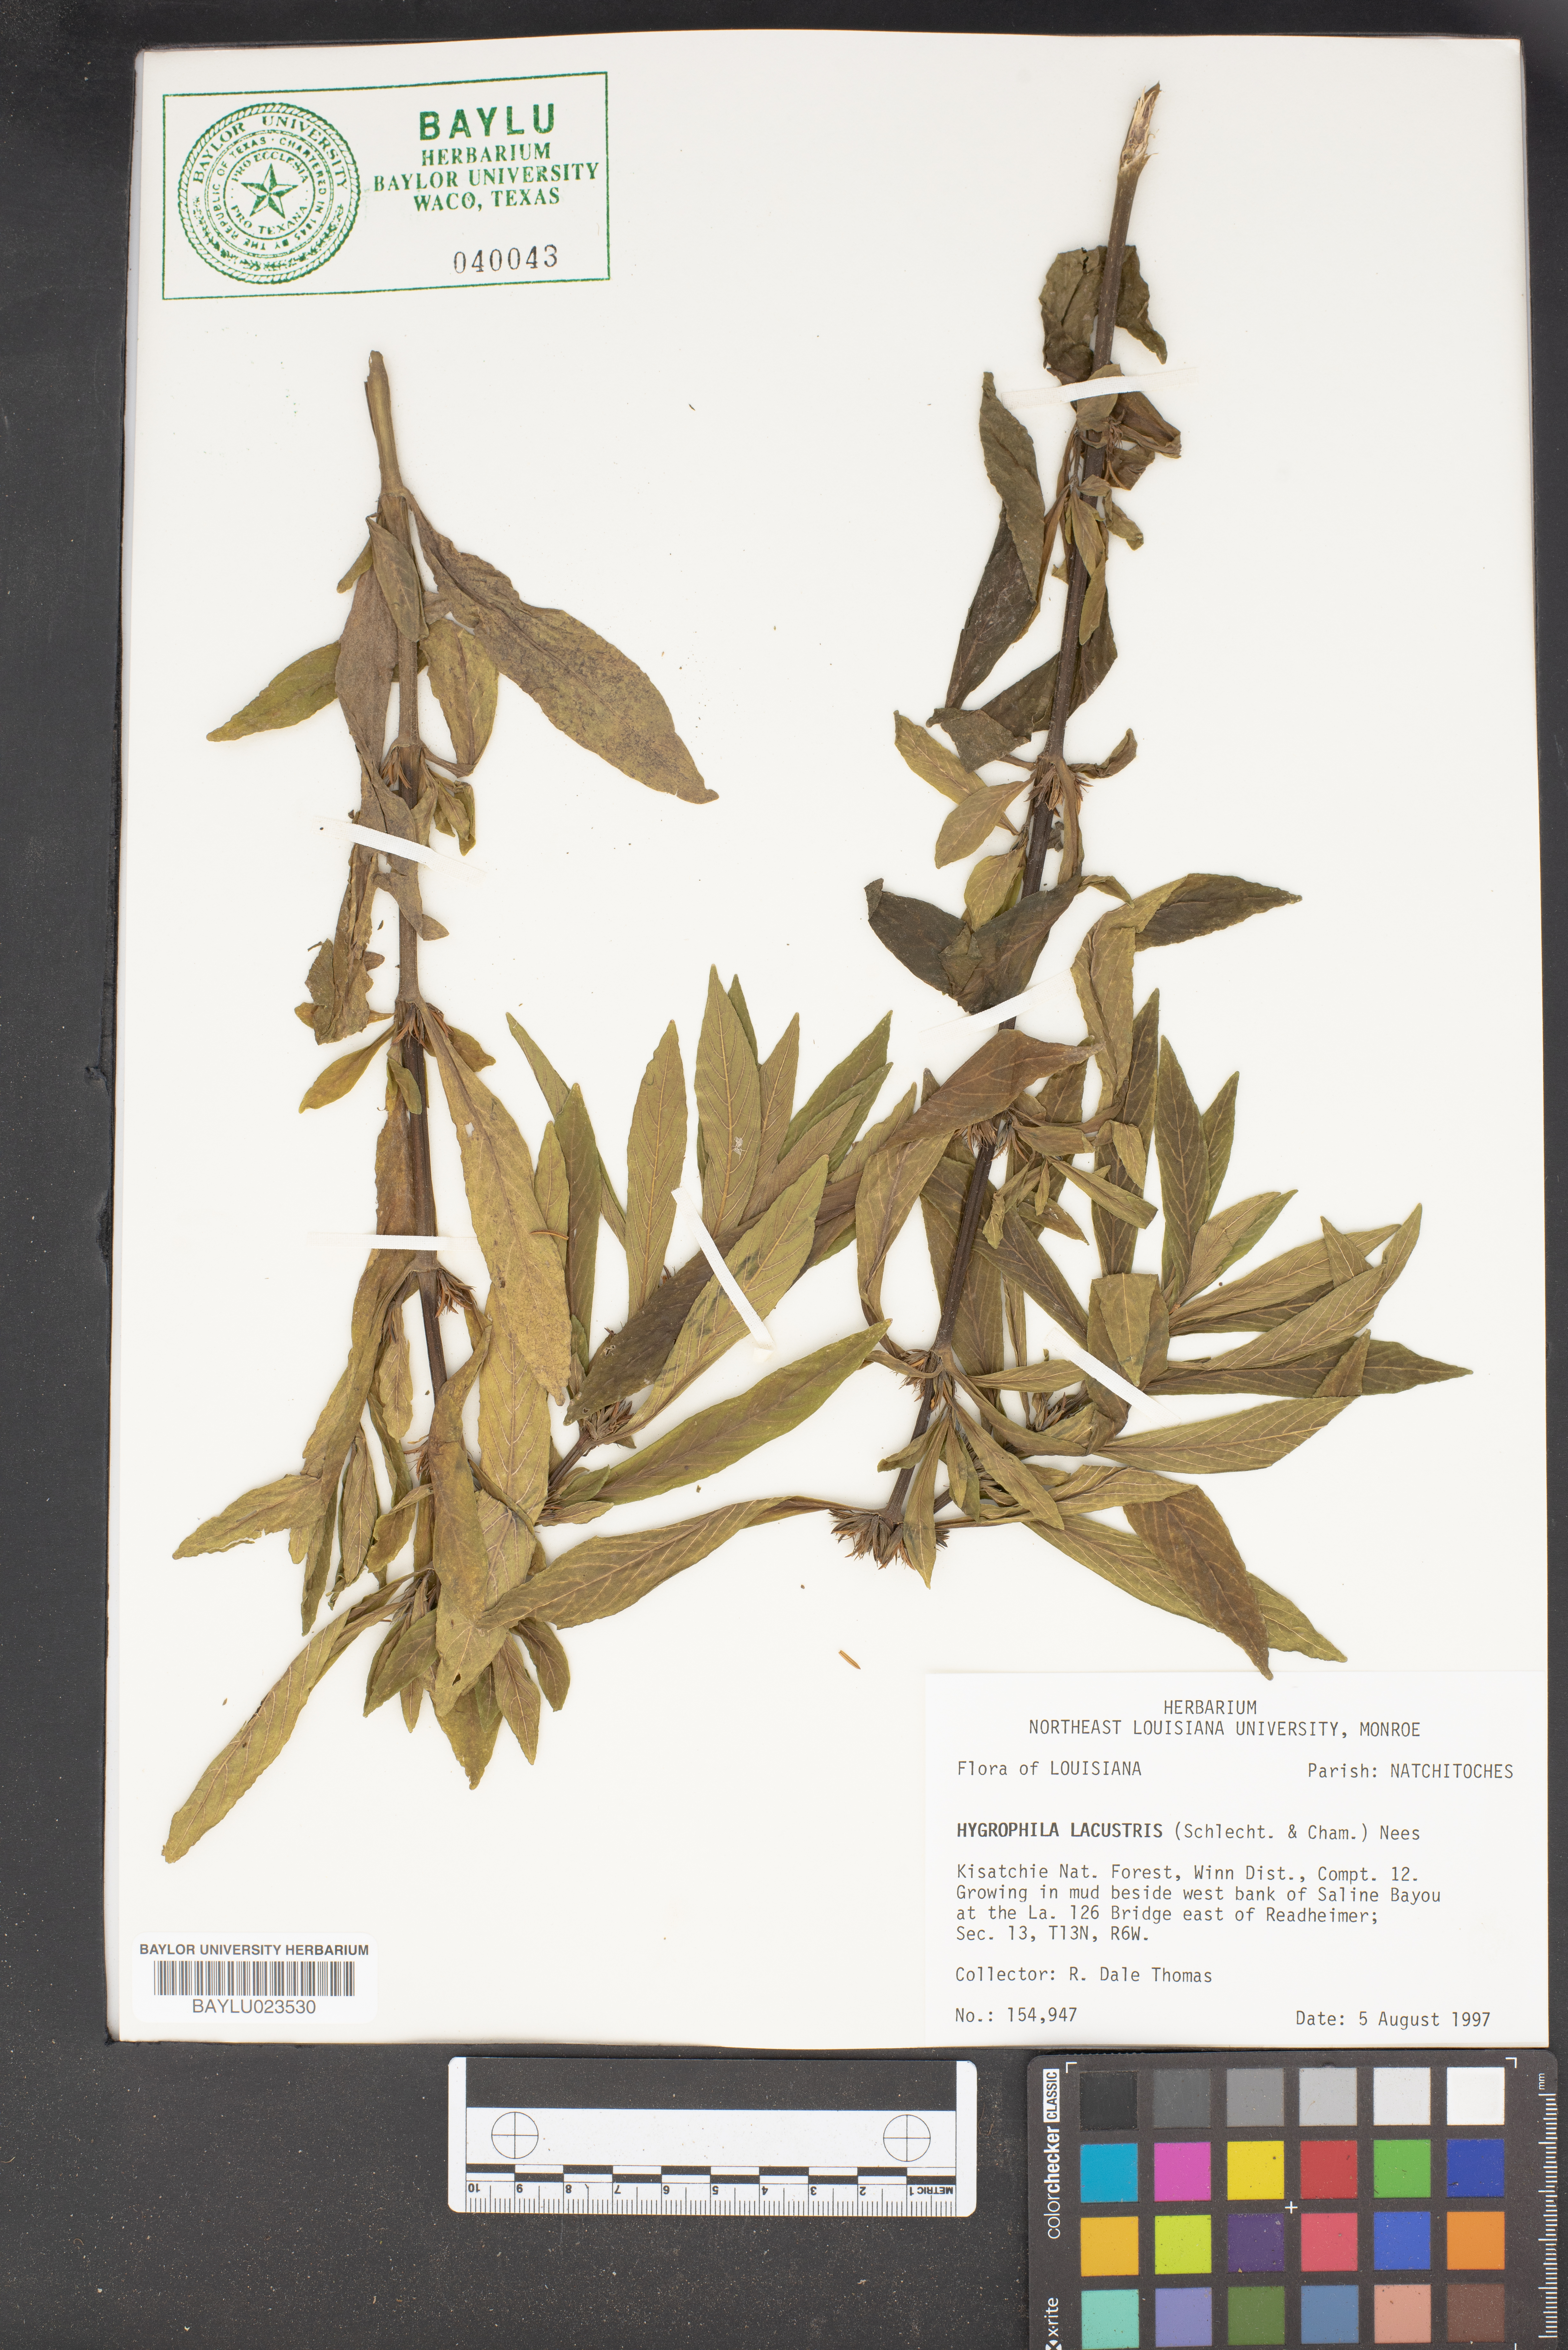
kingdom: Plantae
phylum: Tracheophyta
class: Magnoliopsida
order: Lamiales
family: Acanthaceae
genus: Hygrophila
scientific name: Hygrophila costata
